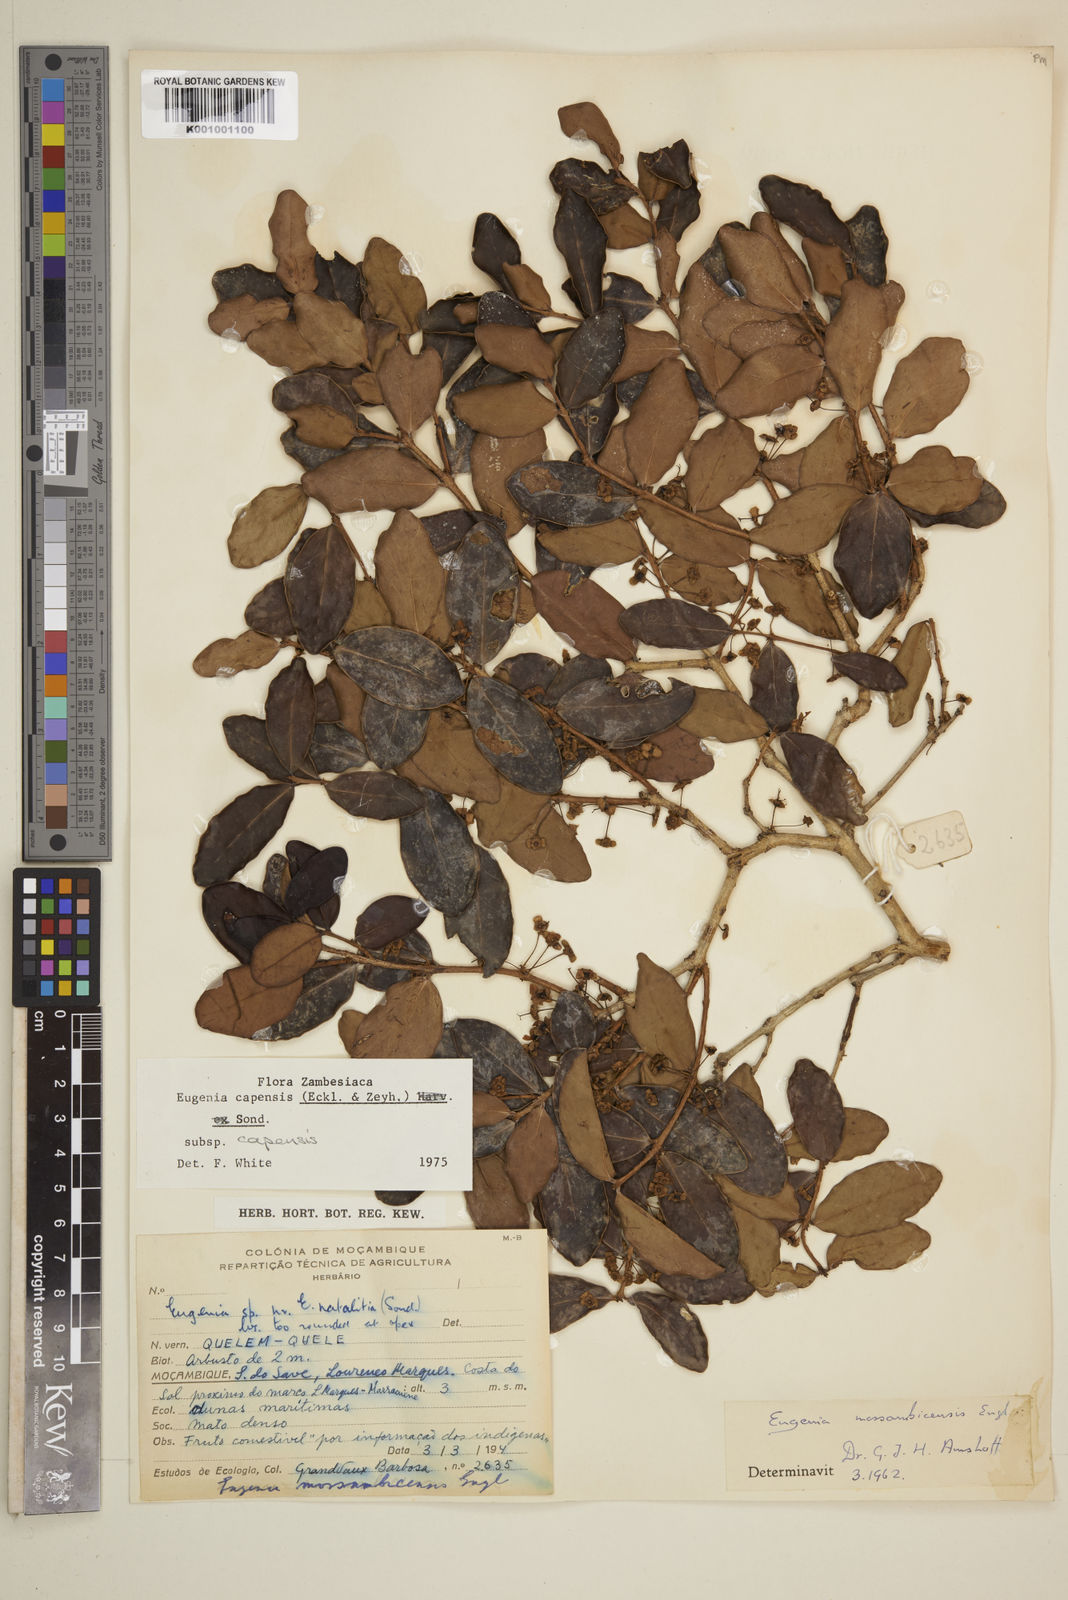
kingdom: Plantae
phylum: Tracheophyta
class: Magnoliopsida
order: Myrtales
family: Myrtaceae
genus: Eugenia
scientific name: Eugenia capensis
